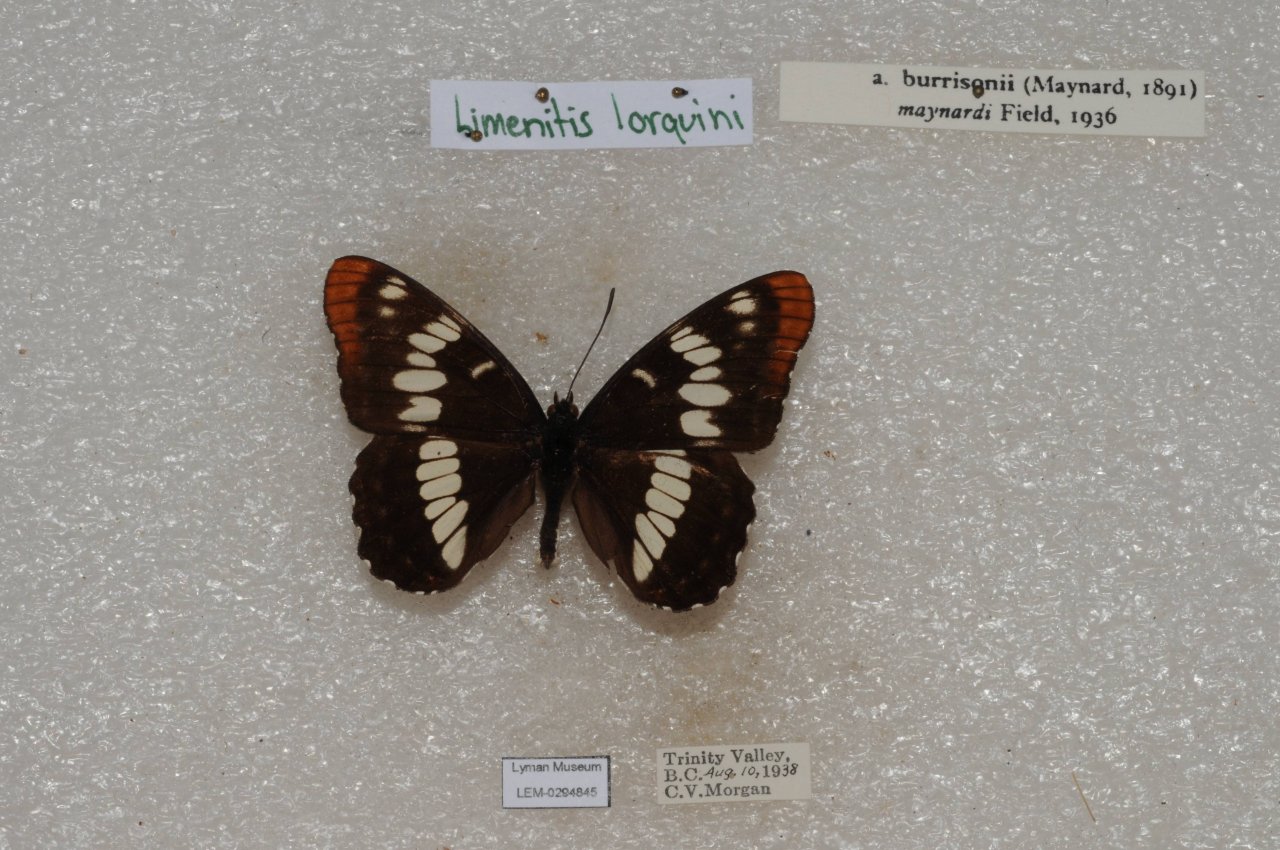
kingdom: Animalia
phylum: Arthropoda
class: Insecta
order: Lepidoptera
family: Nymphalidae
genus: Limenitis
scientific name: Limenitis lorquini
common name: Lorquin's Admiral
